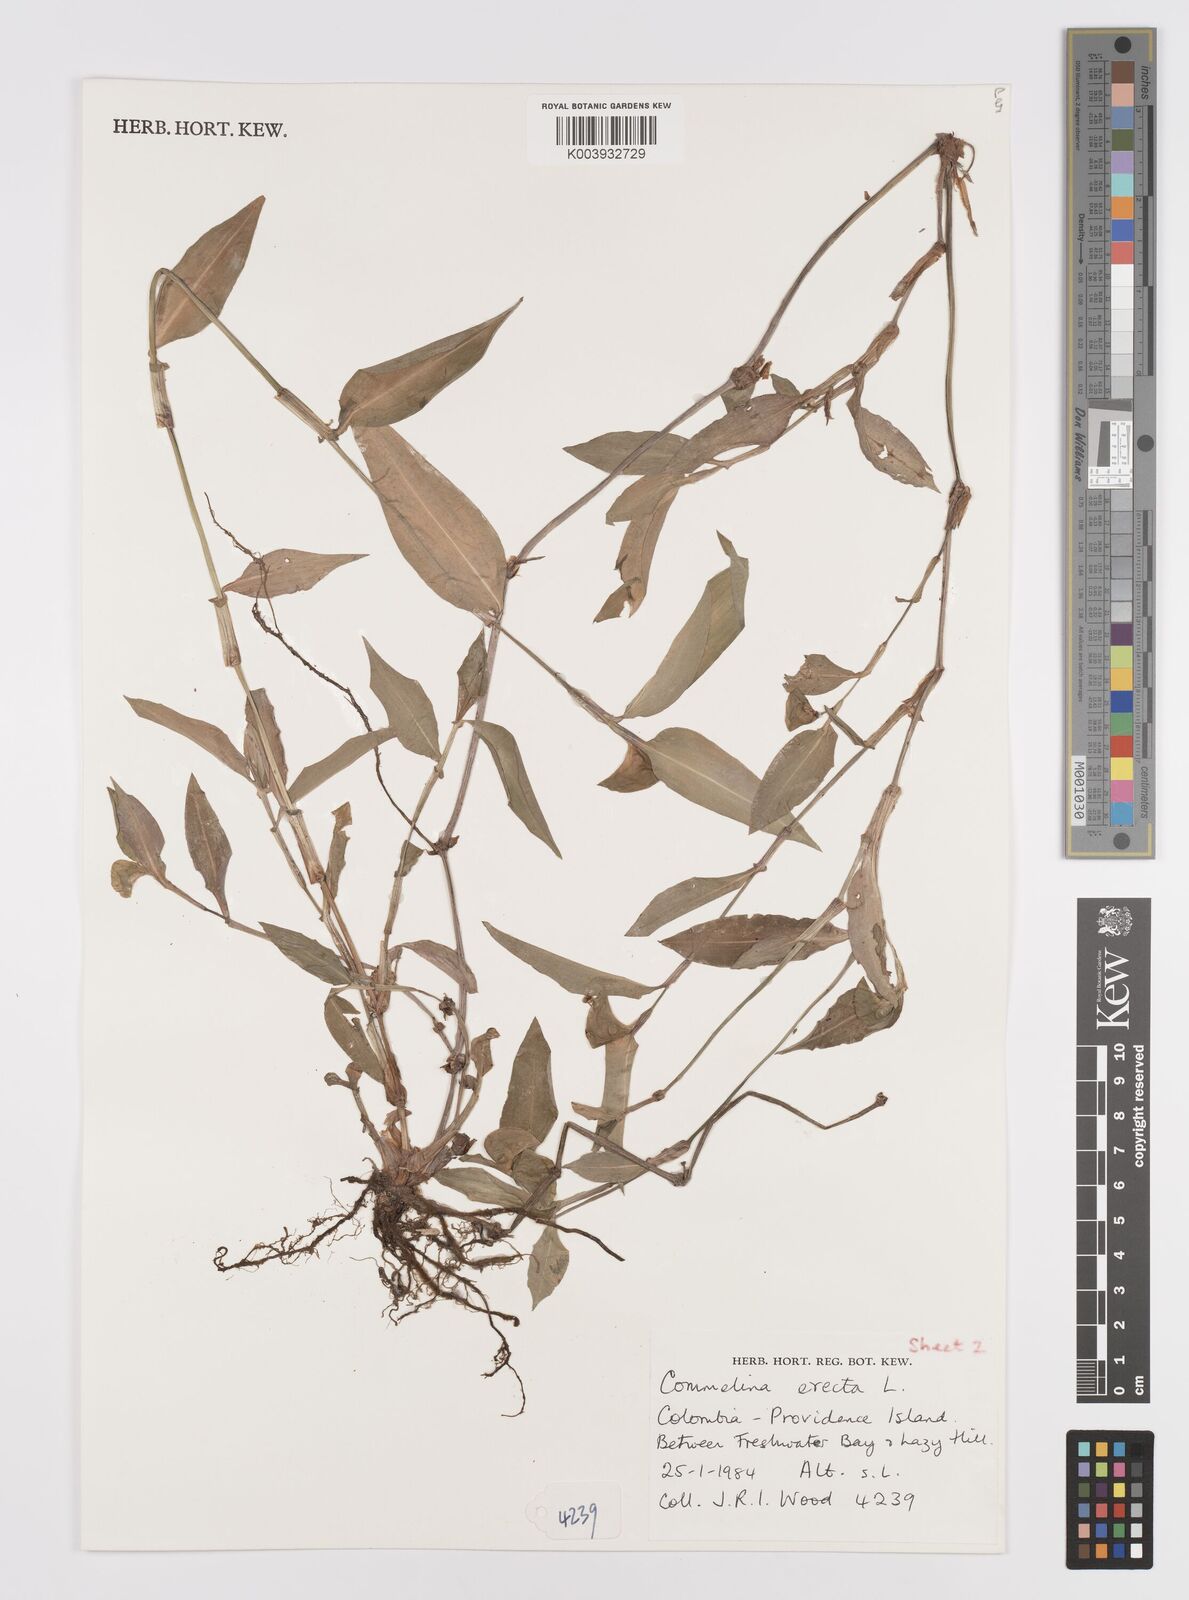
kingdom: Plantae
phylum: Tracheophyta
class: Liliopsida
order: Commelinales
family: Commelinaceae
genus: Commelina
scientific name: Commelina erecta
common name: Blousel blommetjie
